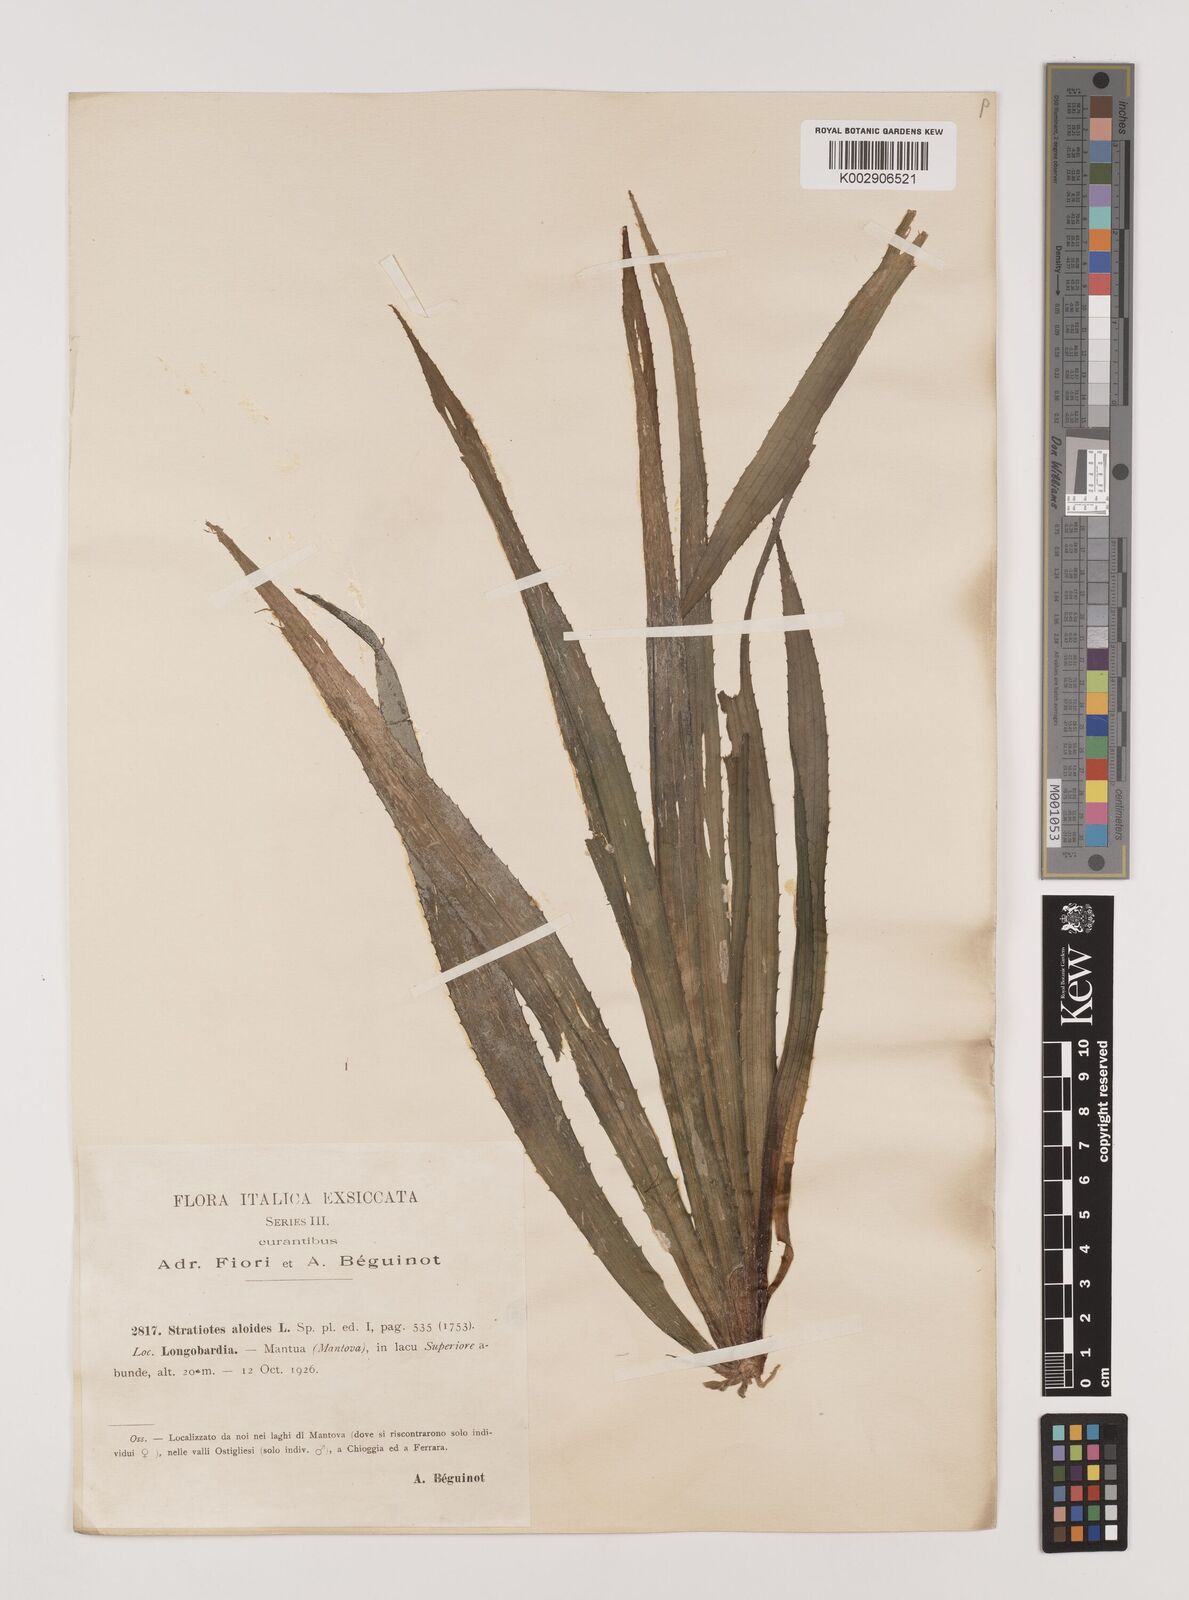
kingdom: Plantae
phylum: Tracheophyta
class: Liliopsida
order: Alismatales
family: Hydrocharitaceae
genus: Stratiotes
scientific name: Stratiotes aloides
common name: Water-soldier
